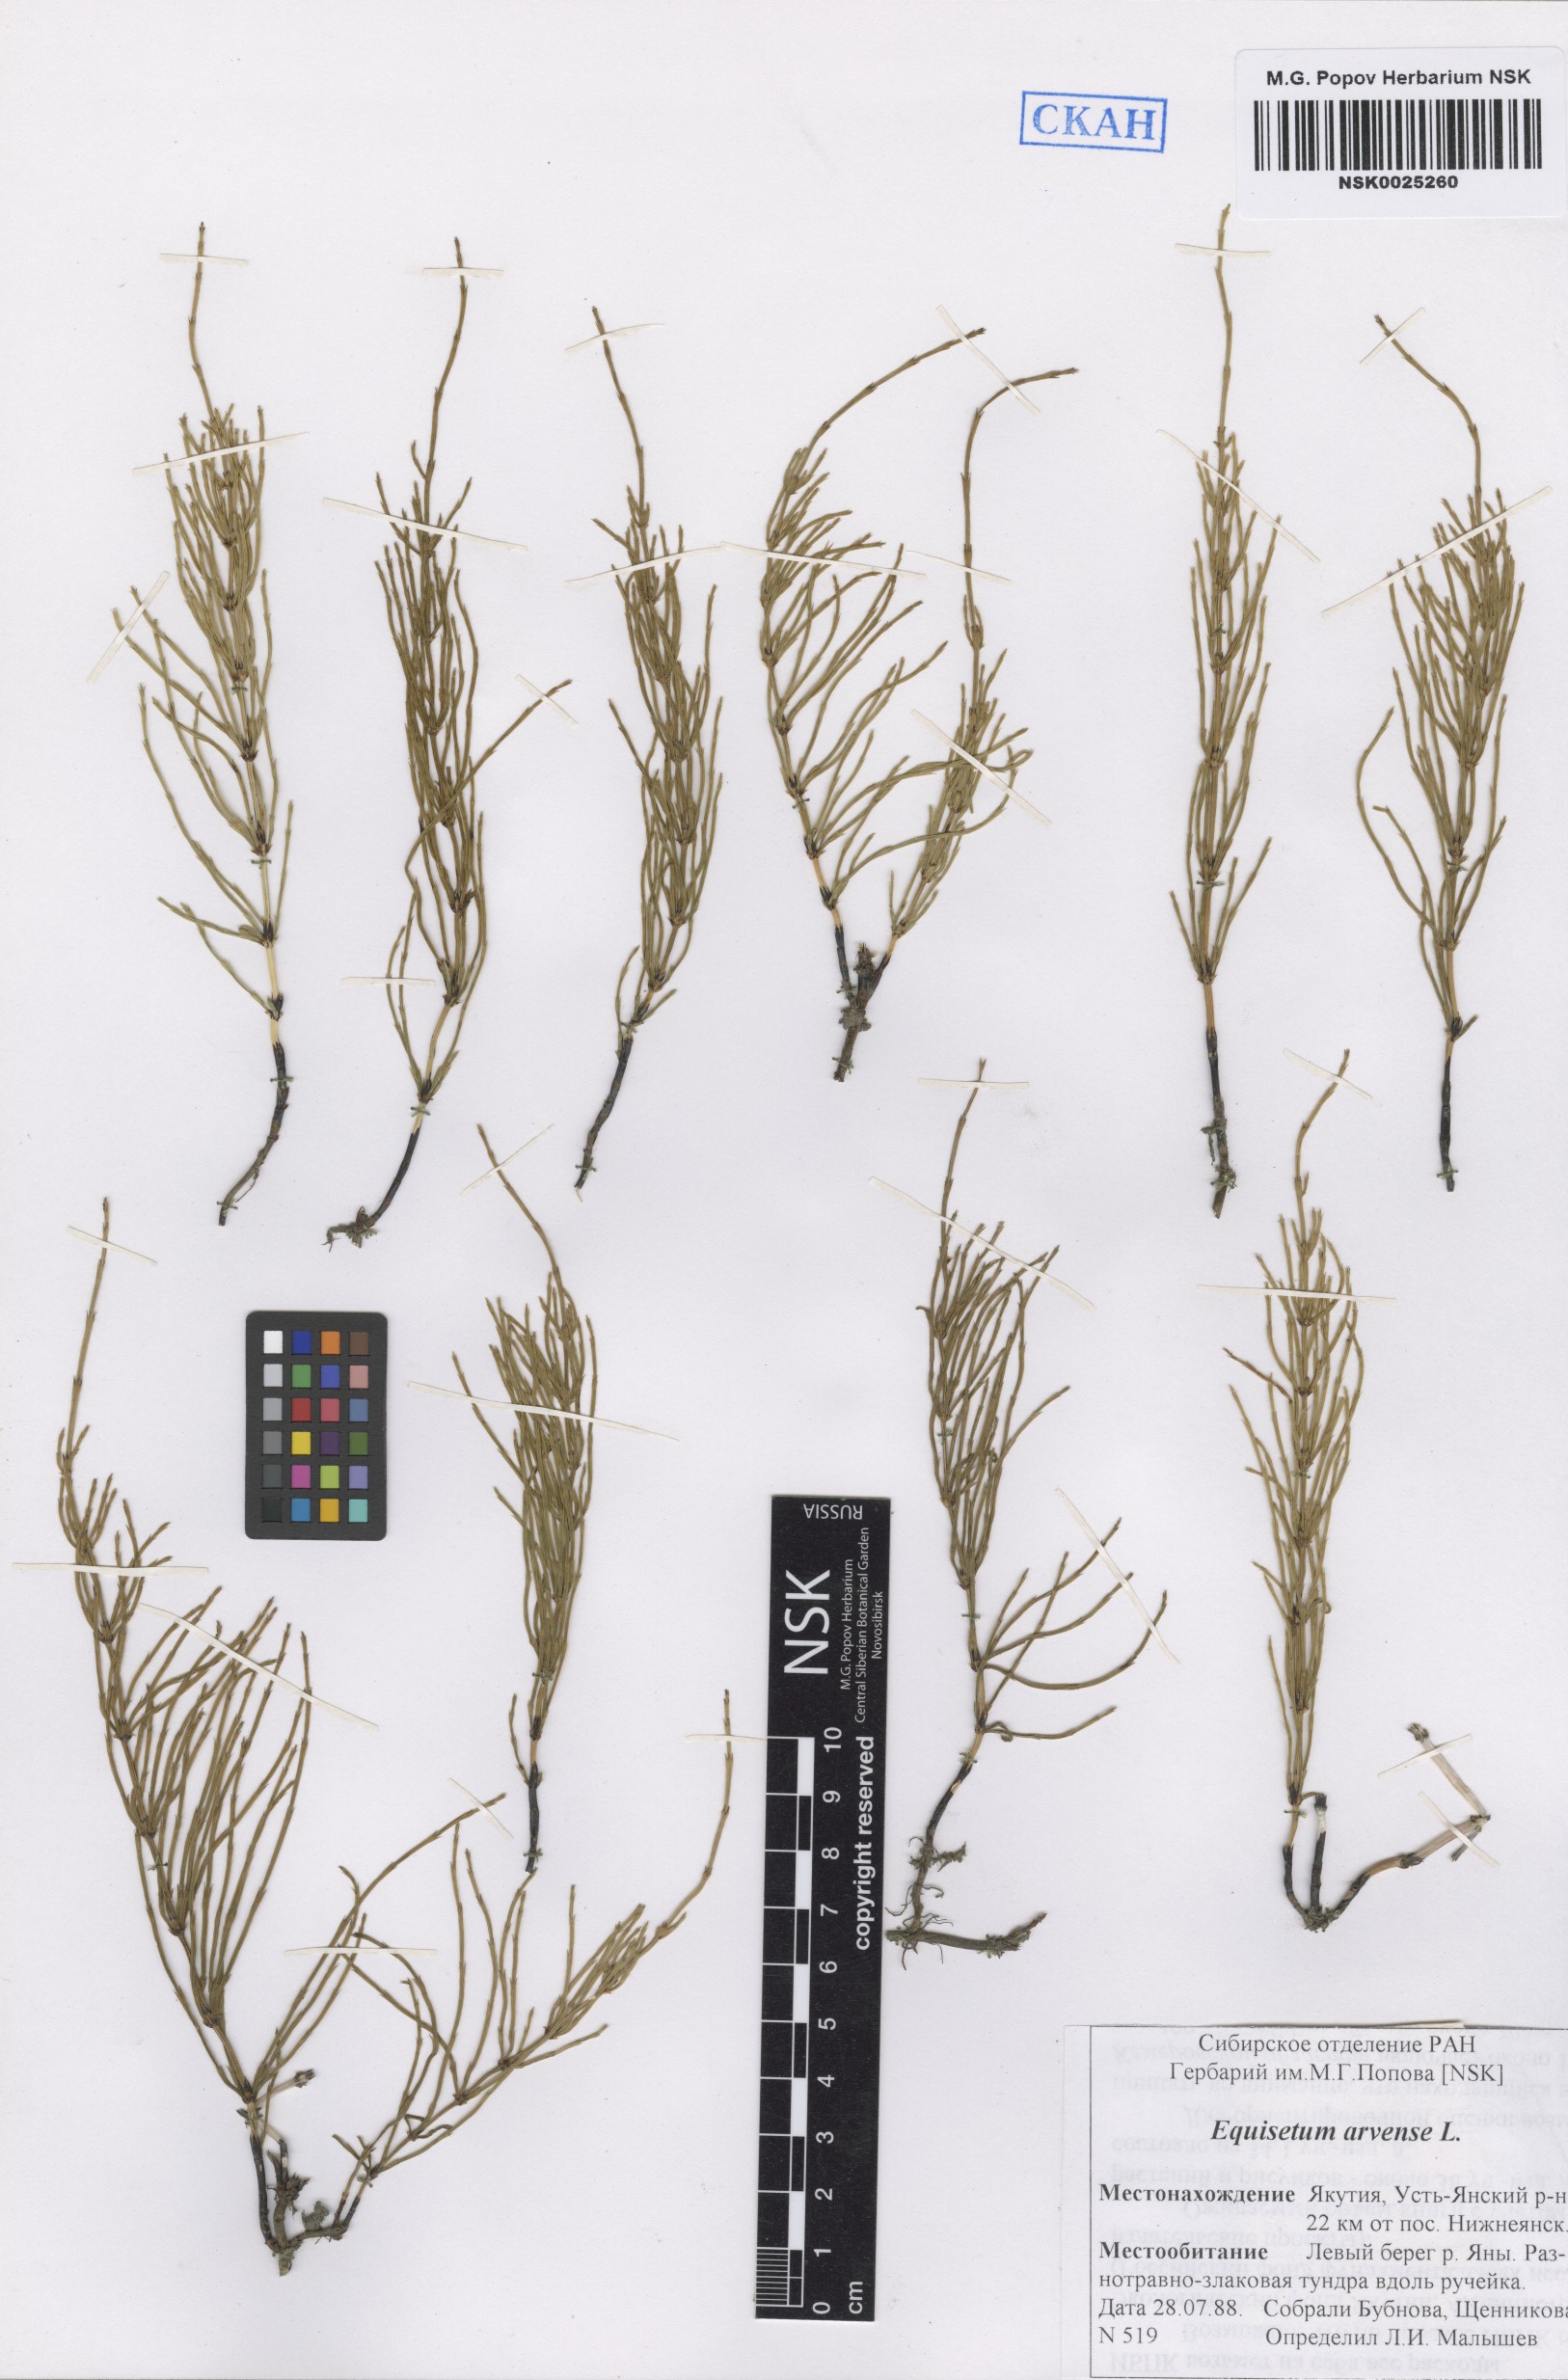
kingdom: Plantae
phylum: Tracheophyta
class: Polypodiopsida
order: Equisetales
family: Equisetaceae
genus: Equisetum
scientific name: Equisetum arvense
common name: Field horsetail
